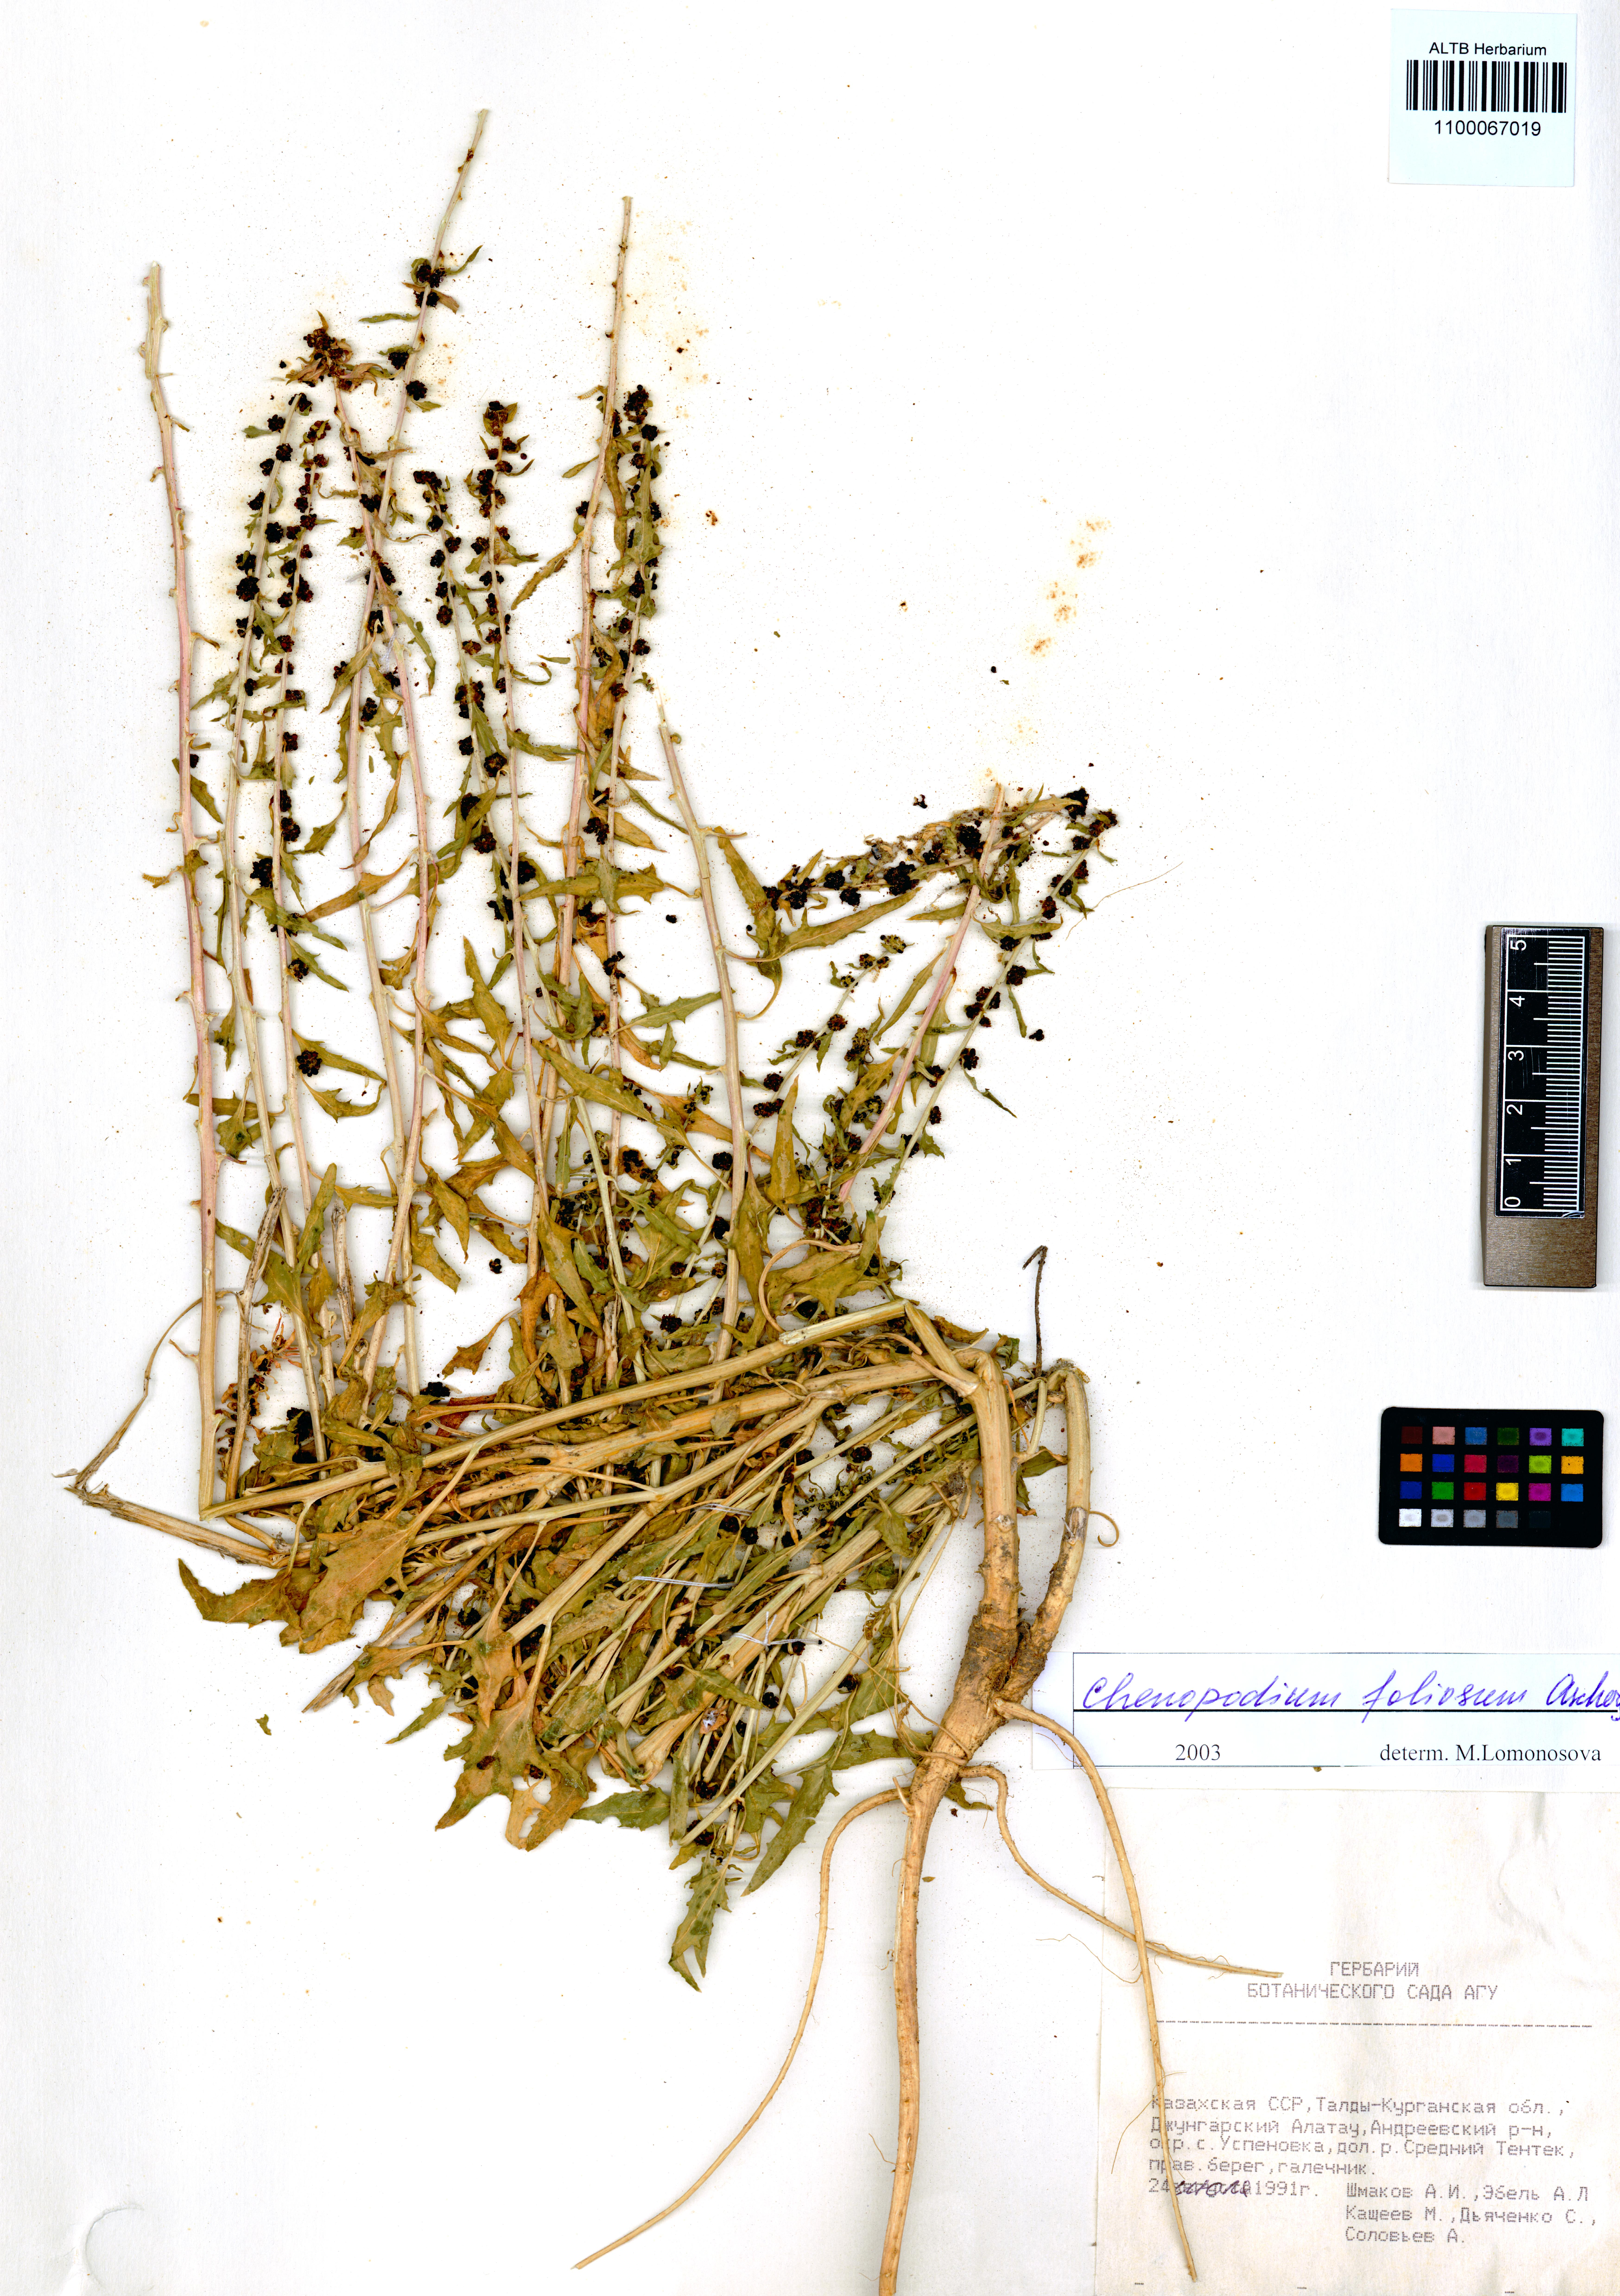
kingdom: Plantae
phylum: Tracheophyta
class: Magnoliopsida
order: Caryophyllales
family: Amaranthaceae
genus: Blitum
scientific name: Blitum virgatum
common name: Strawberry goosefoot
